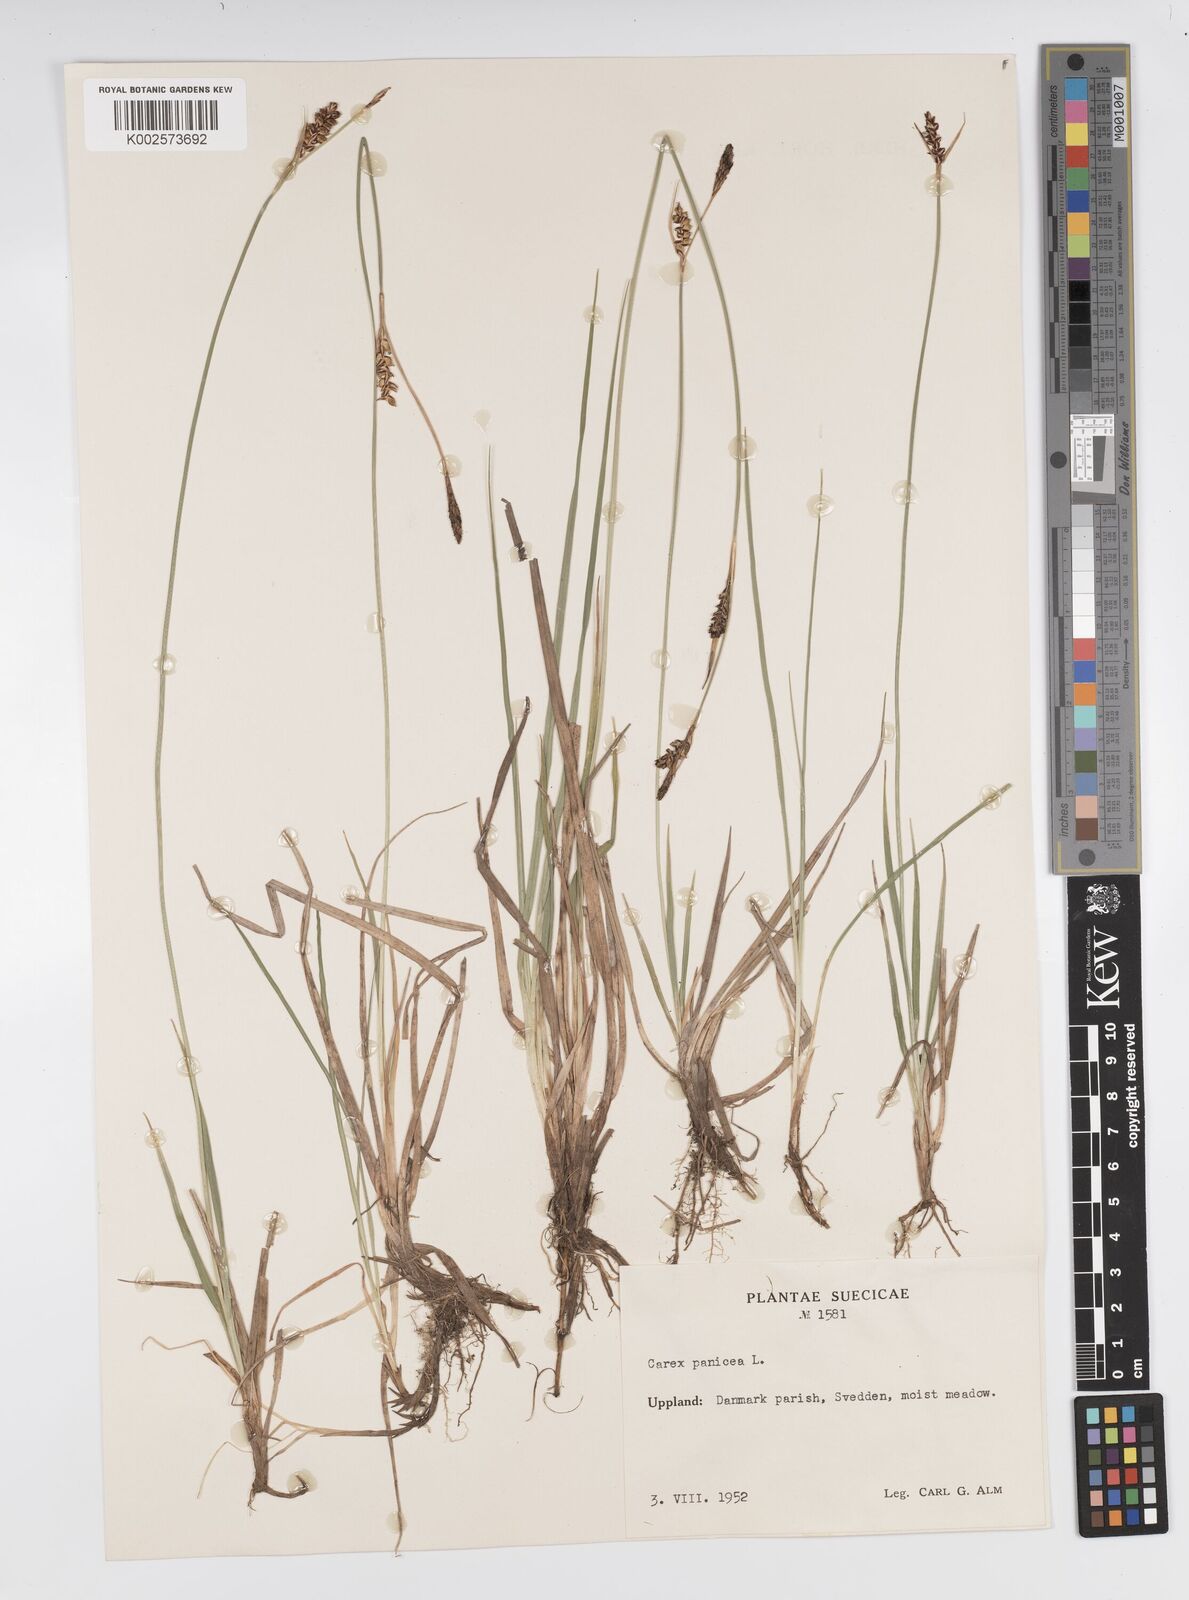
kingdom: Plantae
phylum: Tracheophyta
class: Liliopsida
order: Poales
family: Cyperaceae
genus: Carex
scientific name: Carex panicea
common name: Carnation sedge
